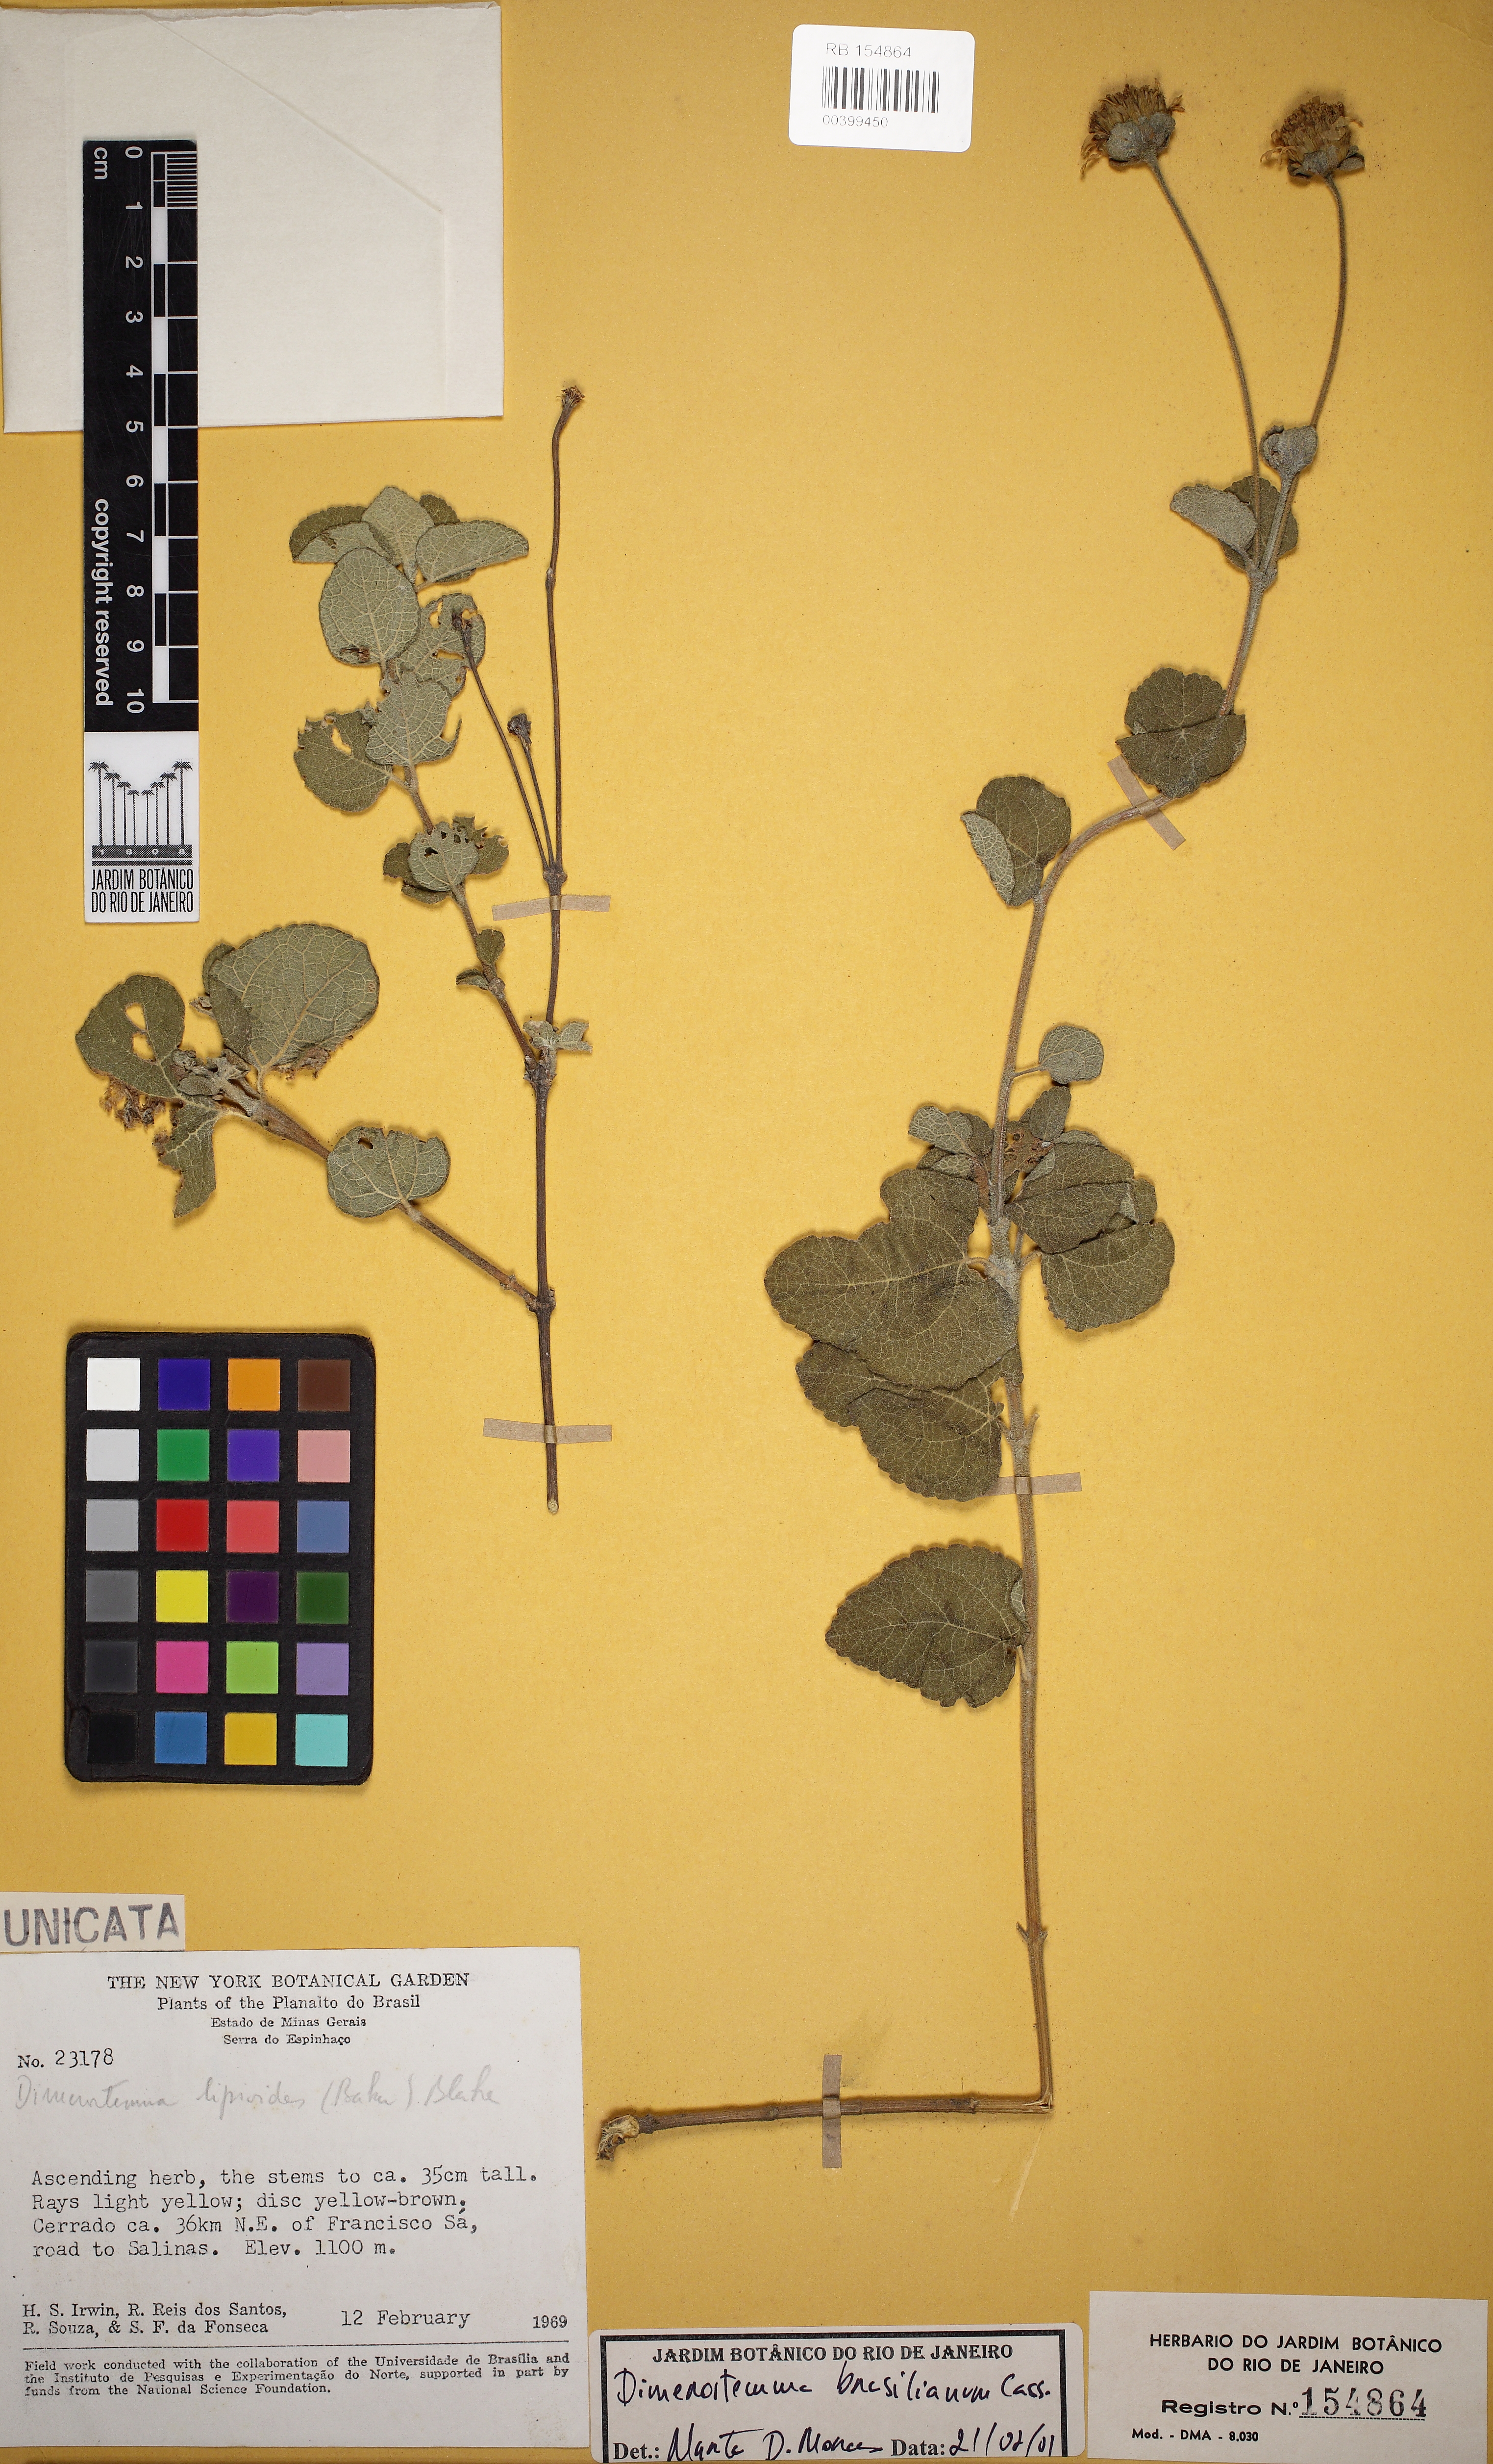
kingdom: Plantae
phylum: Tracheophyta
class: Magnoliopsida
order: Asterales
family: Asteraceae
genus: Dimerostemma
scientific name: Dimerostemma brasilianum
